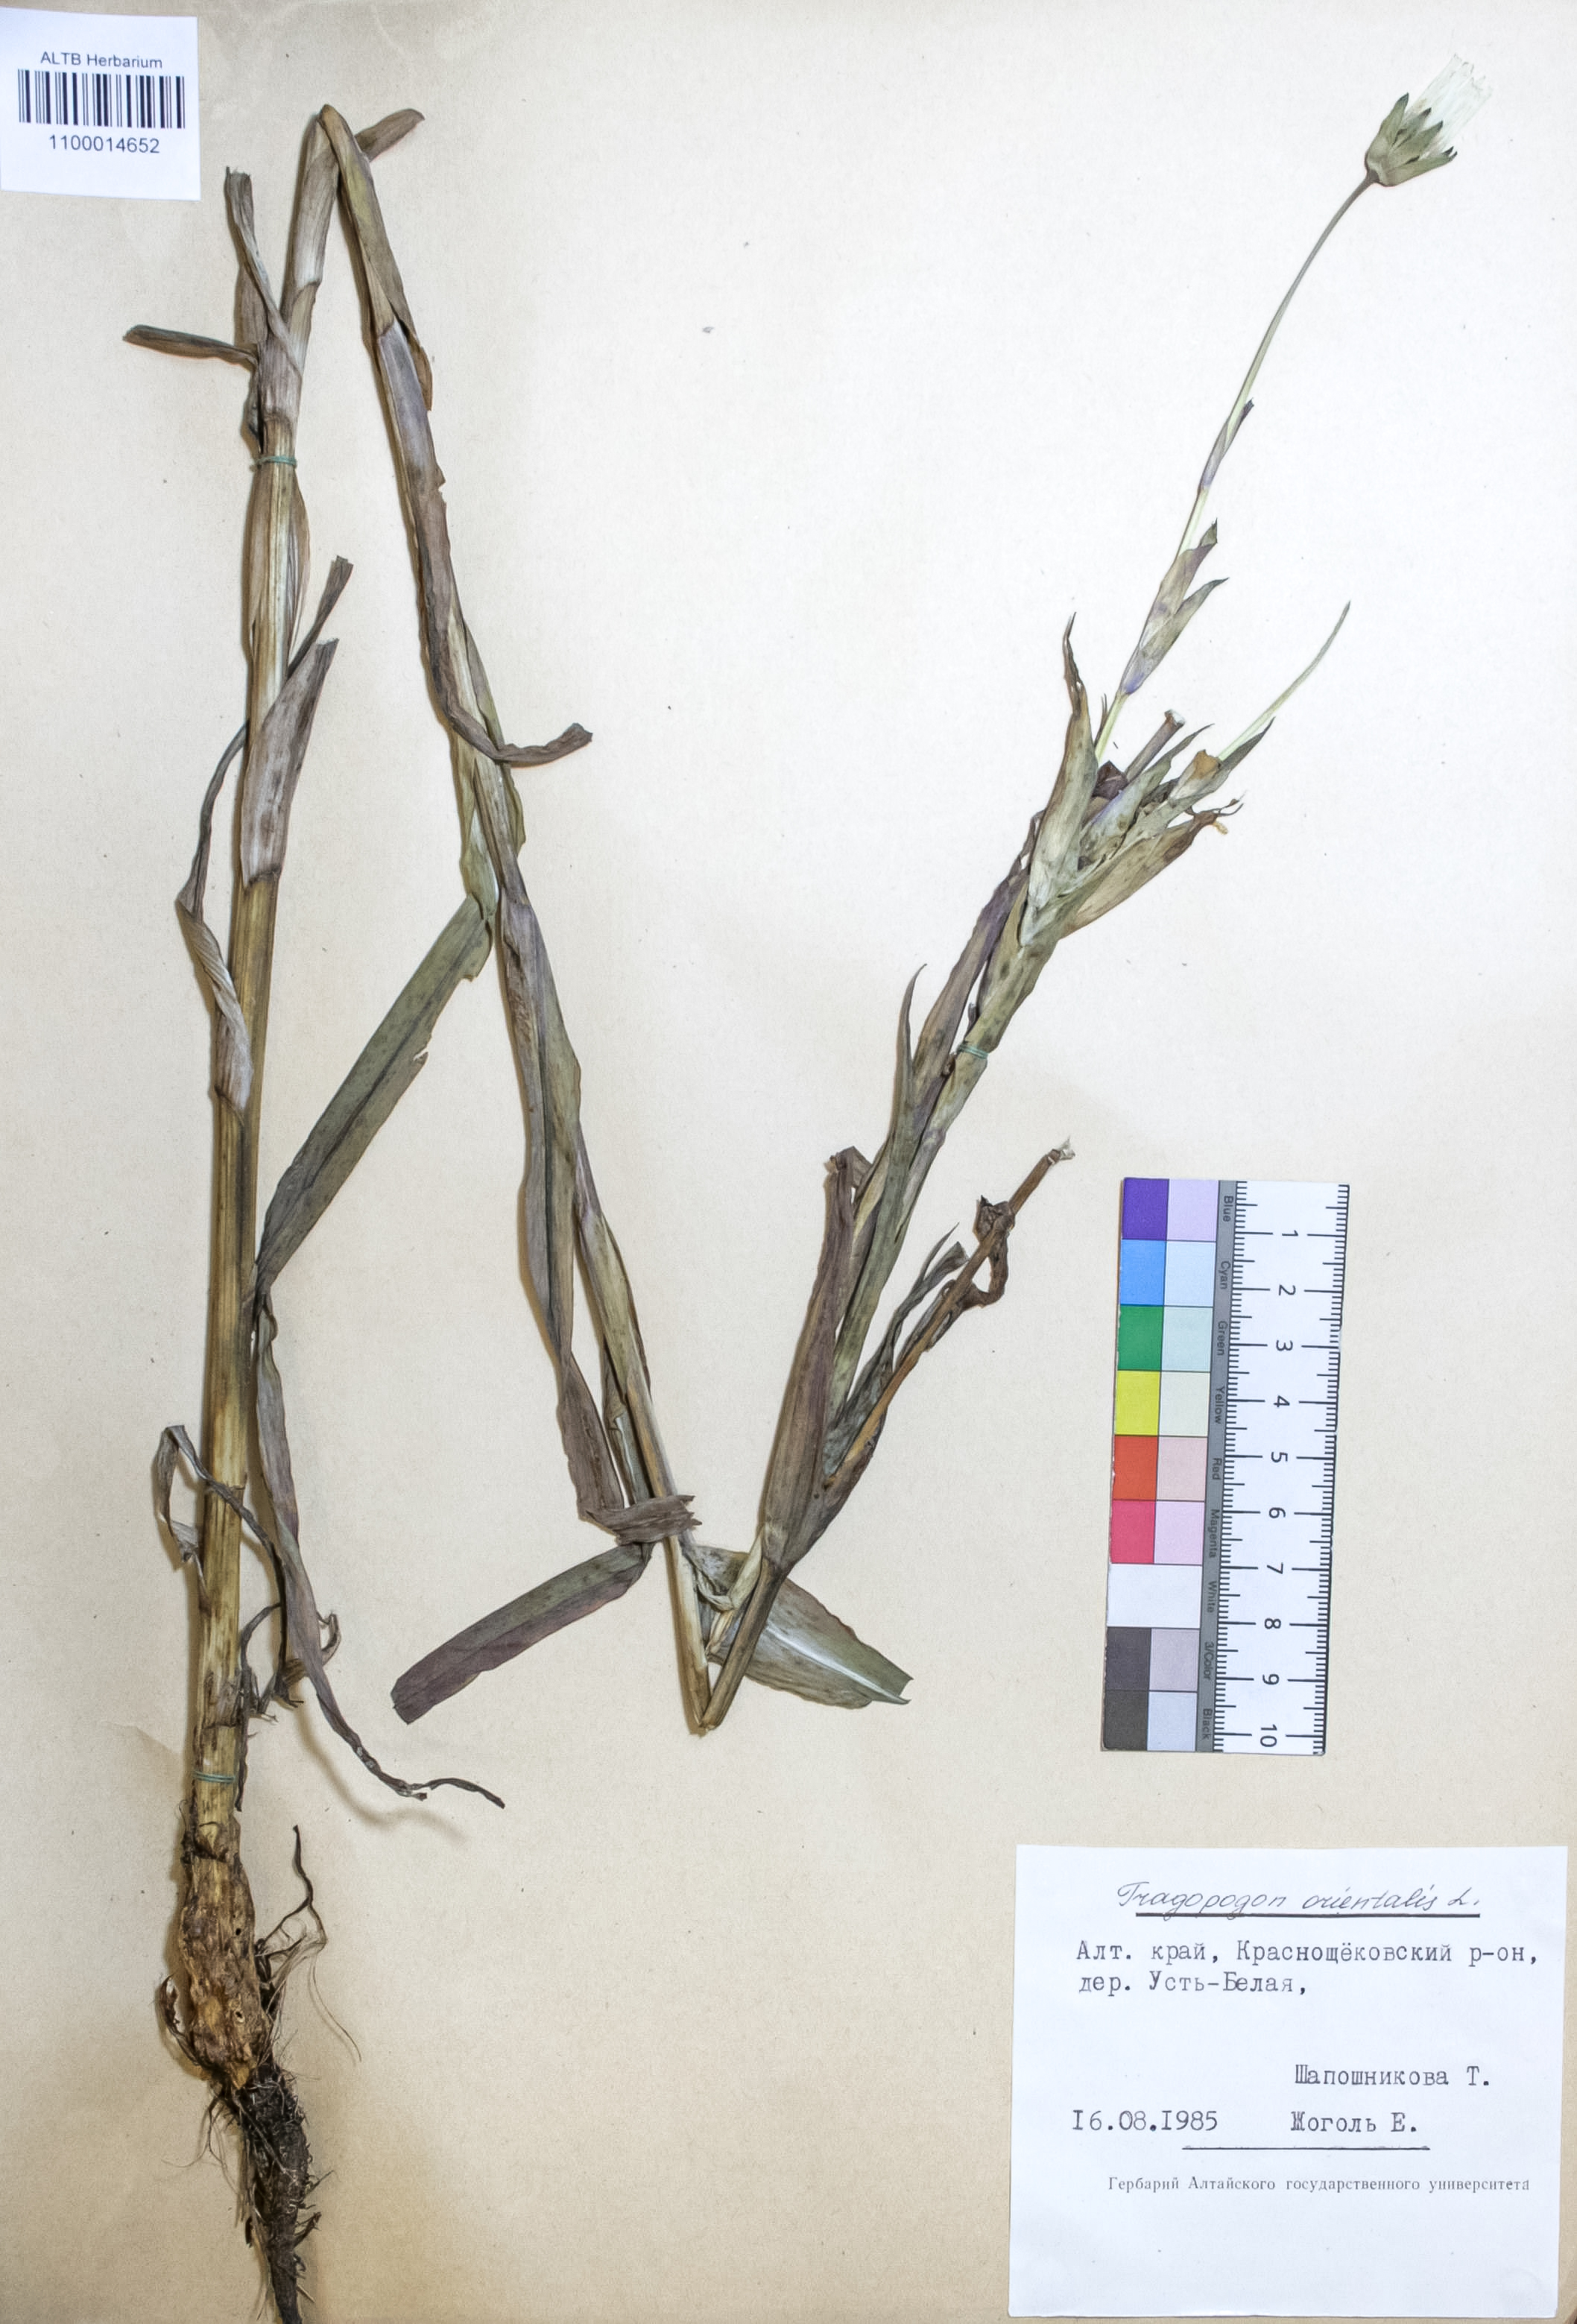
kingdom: Plantae
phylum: Tracheophyta
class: Magnoliopsida
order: Asterales
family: Asteraceae
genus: Tragopogon
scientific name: Tragopogon orientalis
